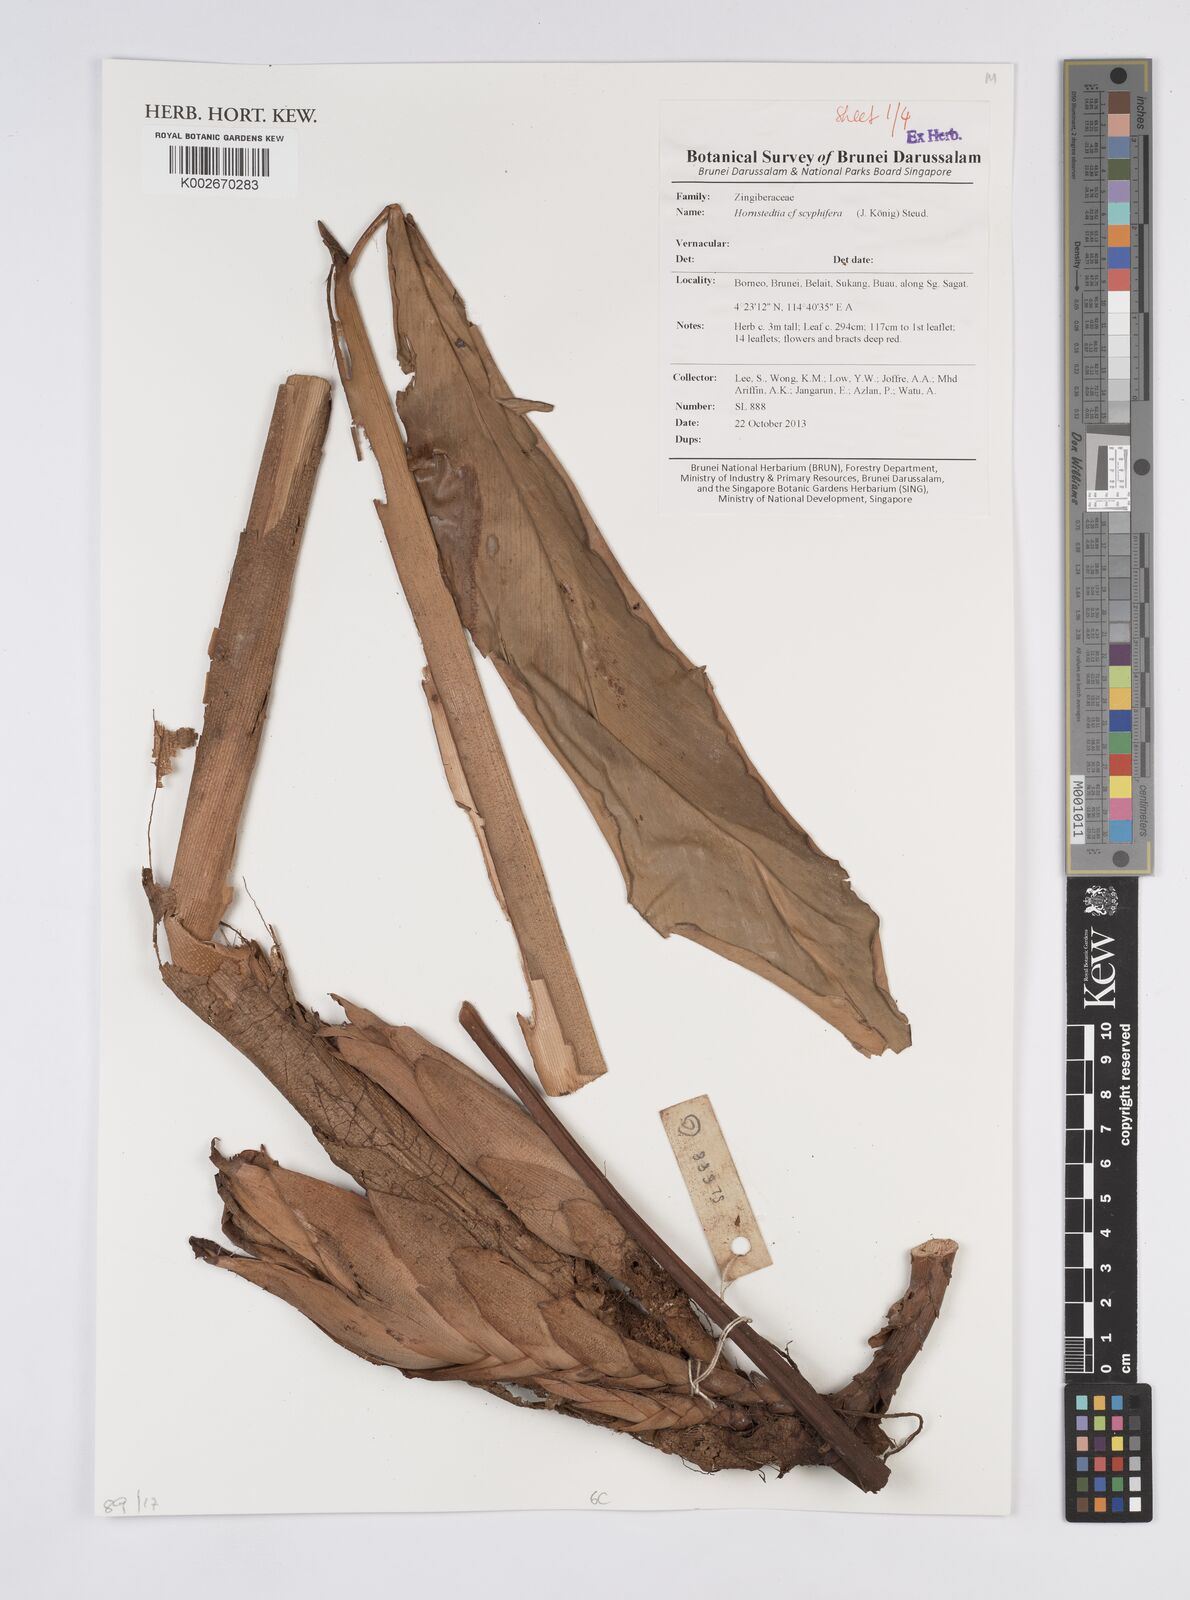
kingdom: Plantae
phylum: Tracheophyta
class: Liliopsida
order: Zingiberales
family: Zingiberaceae
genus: Hornstedtia
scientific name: Hornstedtia scyphifera
